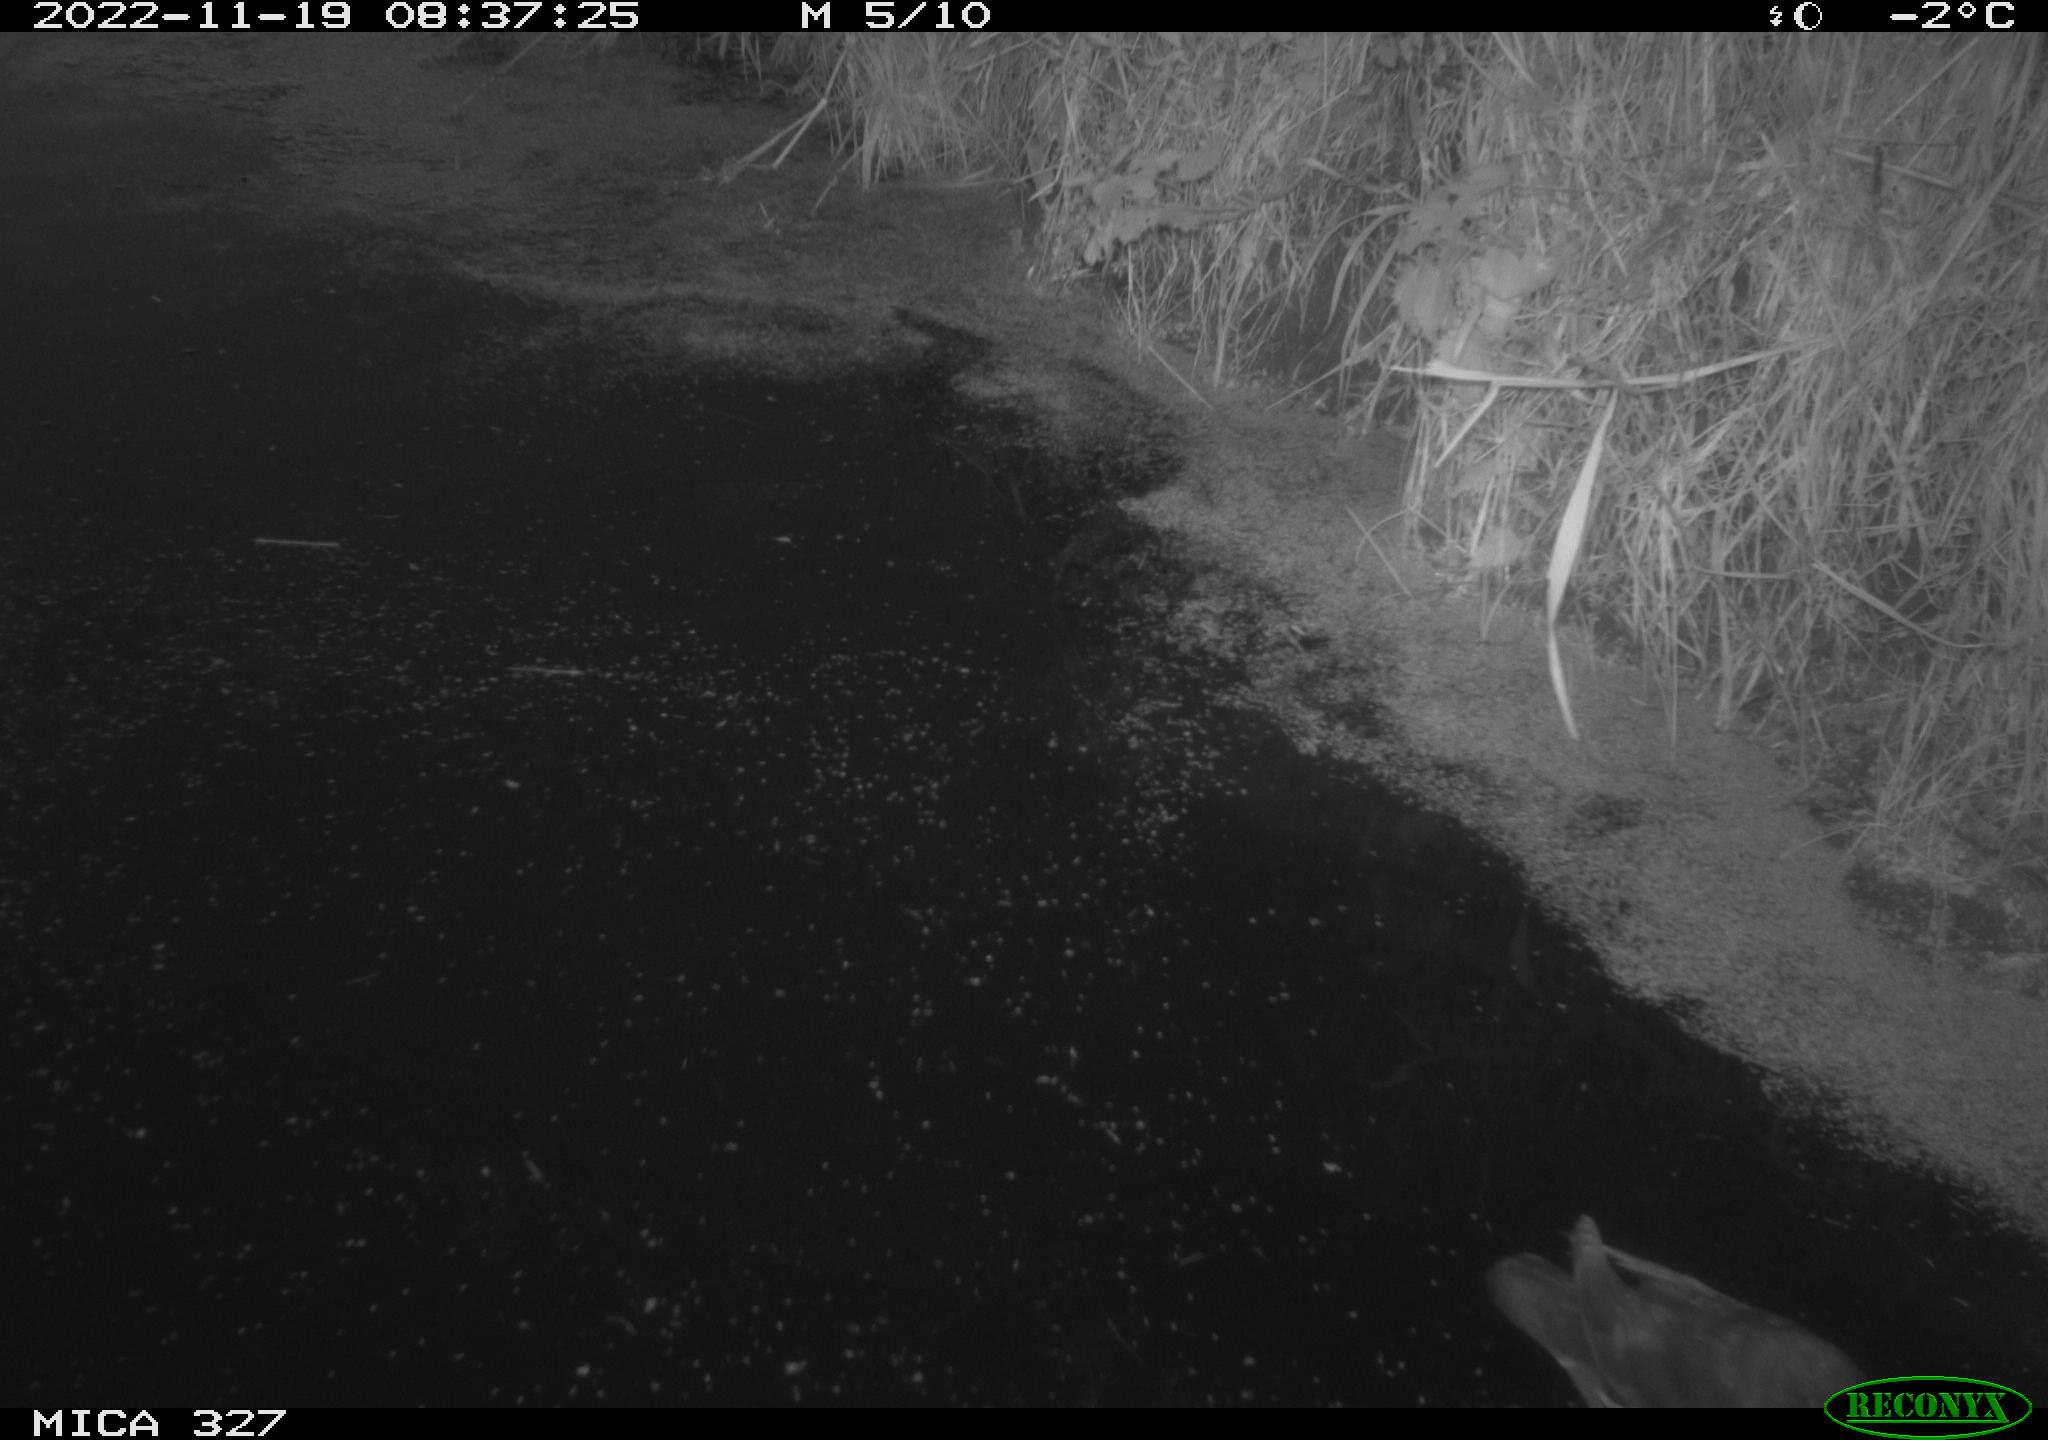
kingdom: Animalia
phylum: Chordata
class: Aves
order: Gruiformes
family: Rallidae
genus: Gallinula
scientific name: Gallinula chloropus
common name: Common moorhen
